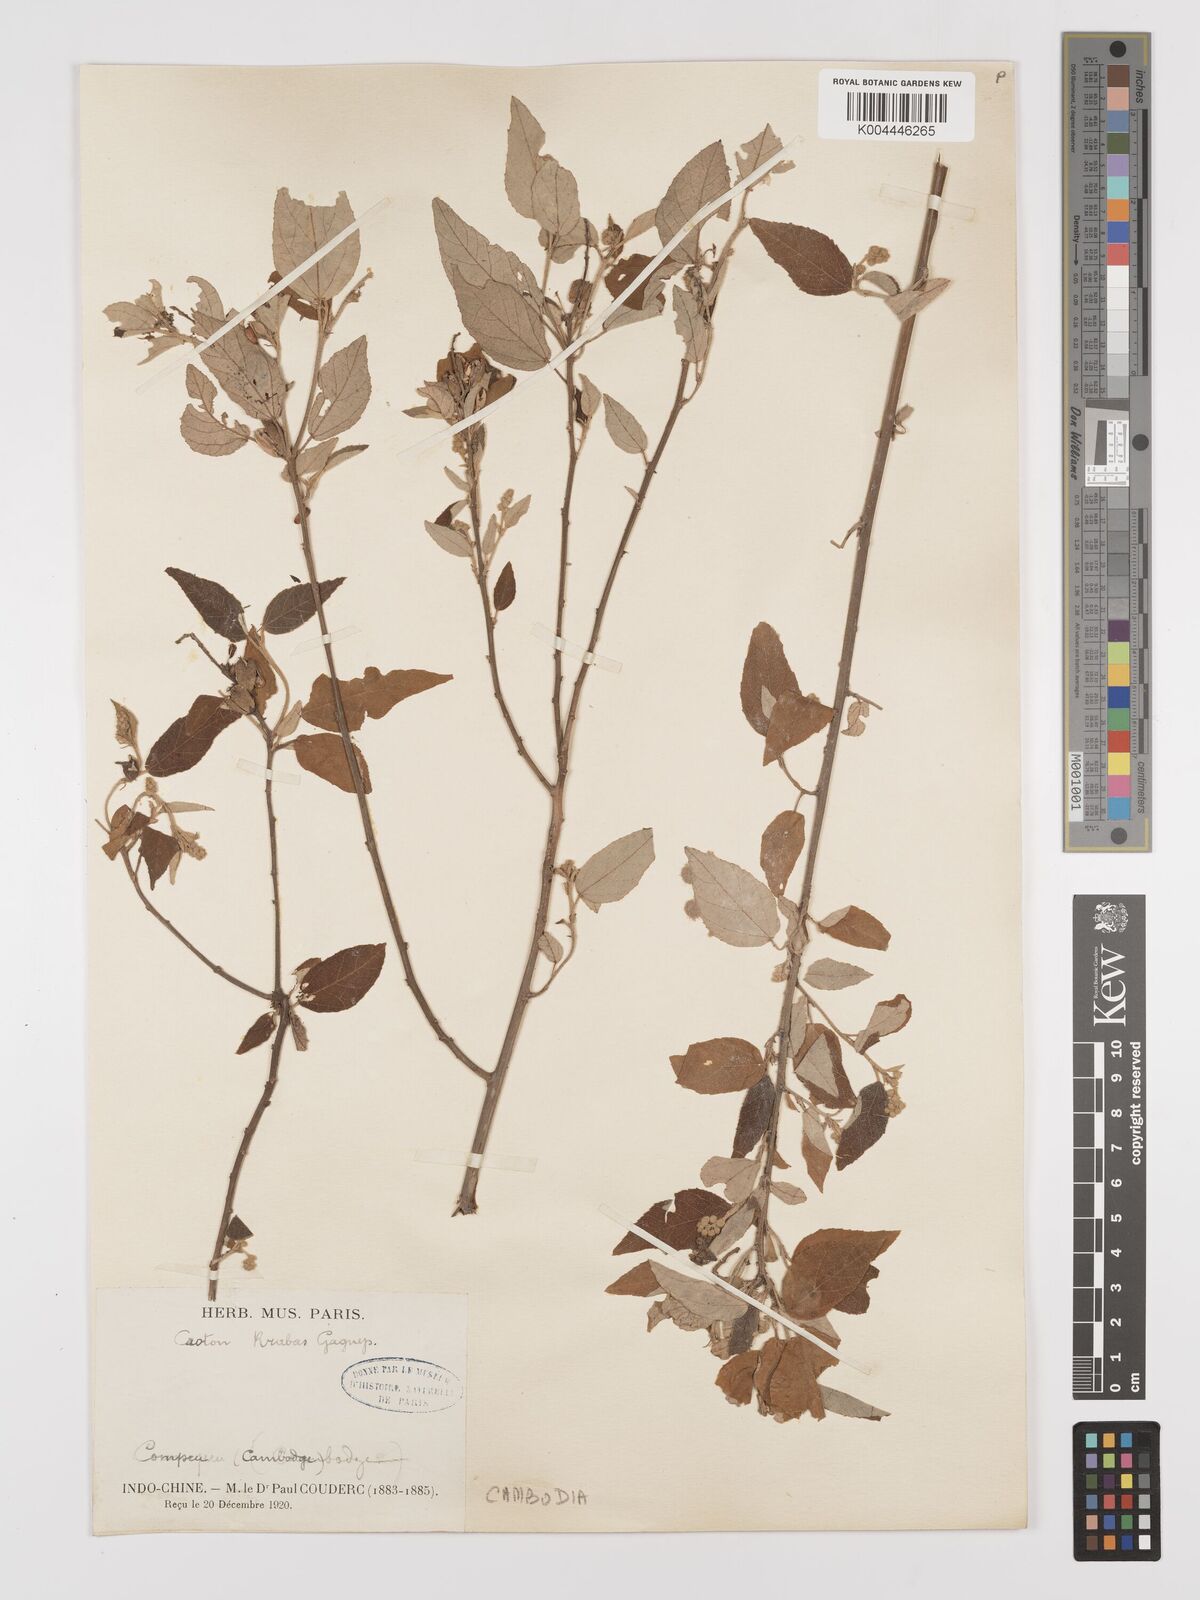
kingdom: Plantae
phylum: Tracheophyta
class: Magnoliopsida
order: Malpighiales
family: Euphorbiaceae
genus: Croton
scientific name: Croton krabas
